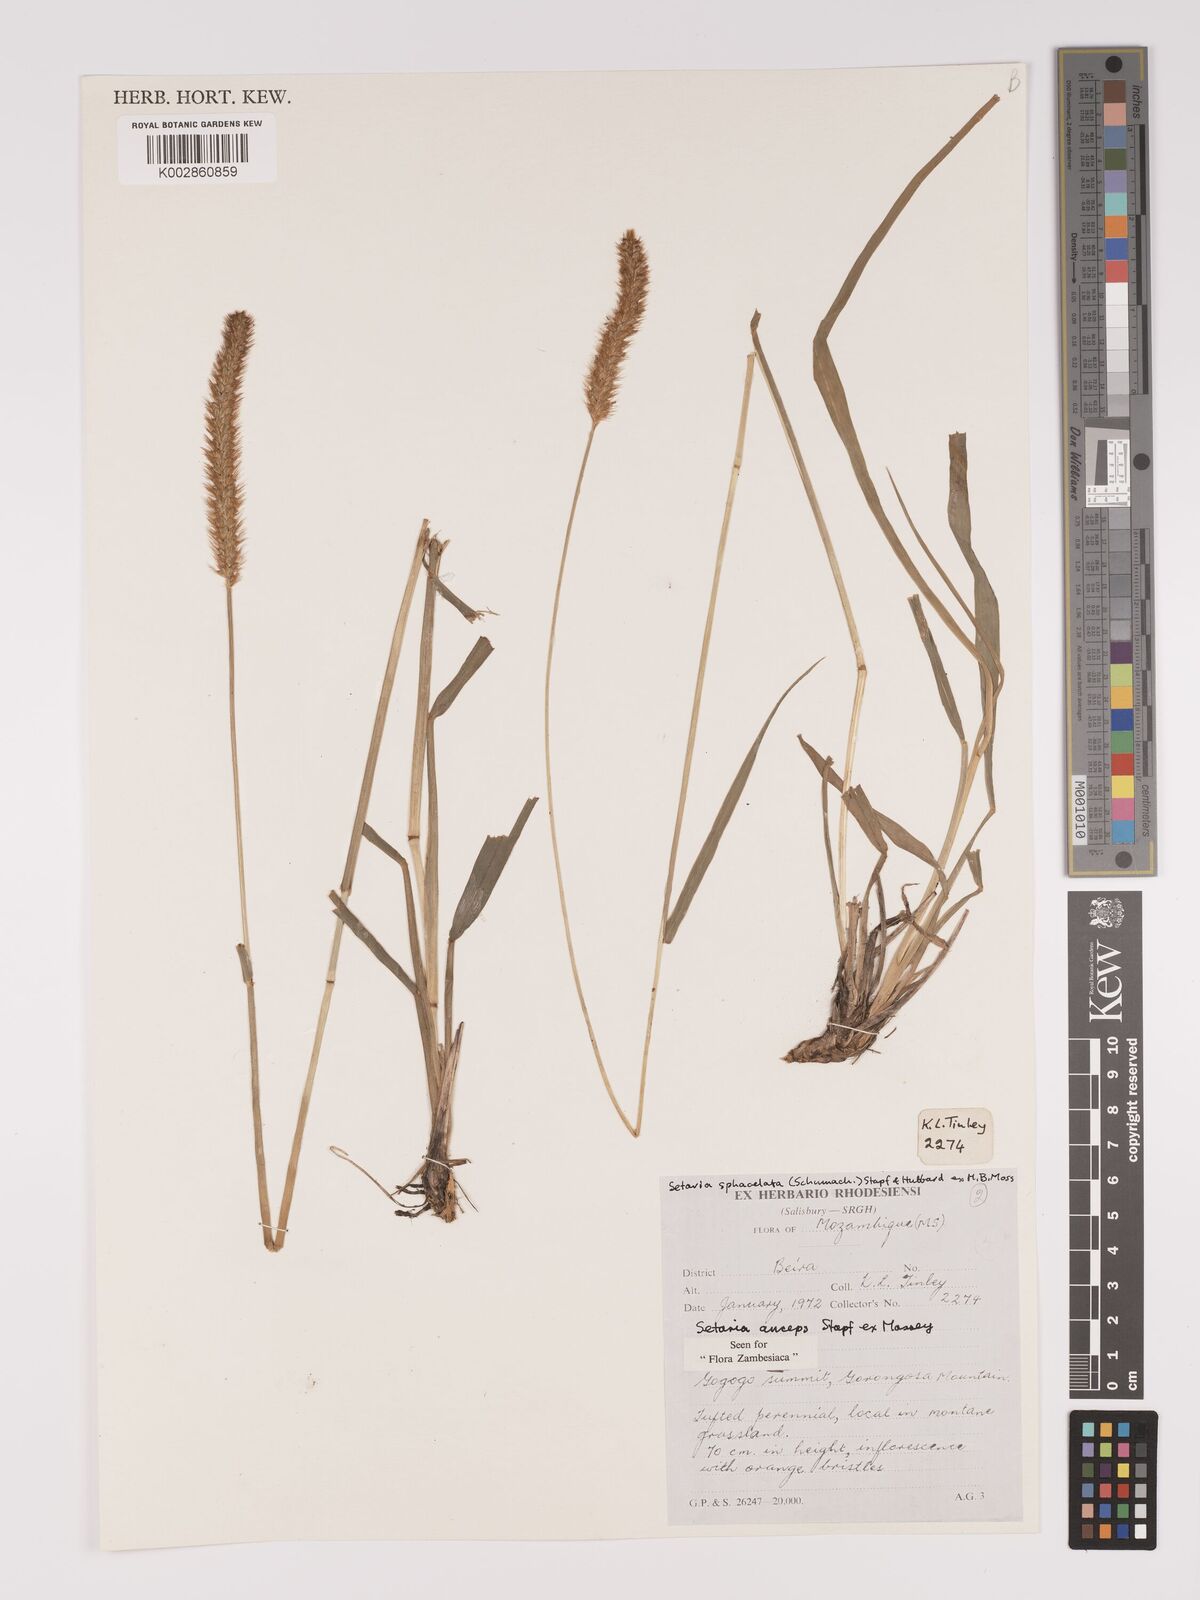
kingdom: Plantae
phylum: Tracheophyta
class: Liliopsida
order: Poales
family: Poaceae
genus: Setaria
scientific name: Setaria sphacelata
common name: African bristlegrass
